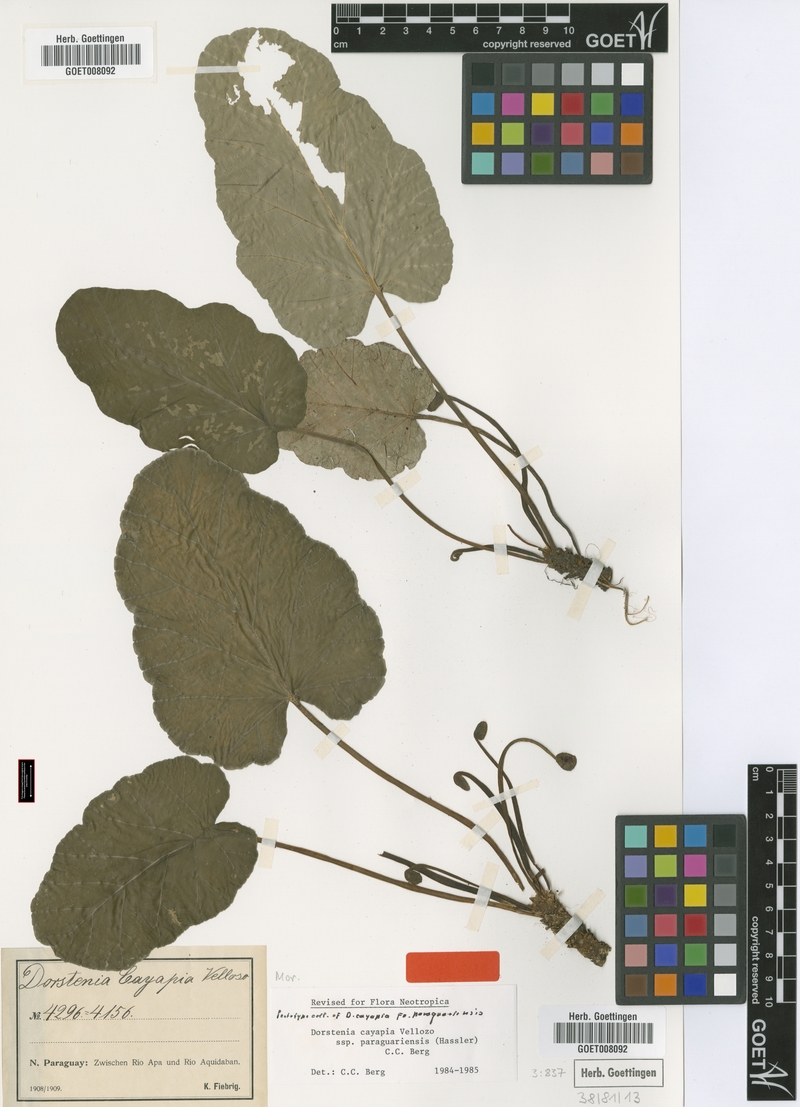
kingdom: Plantae
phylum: Tracheophyta
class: Magnoliopsida
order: Rosales
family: Moraceae
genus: Dorstenia
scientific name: Dorstenia cayapia
